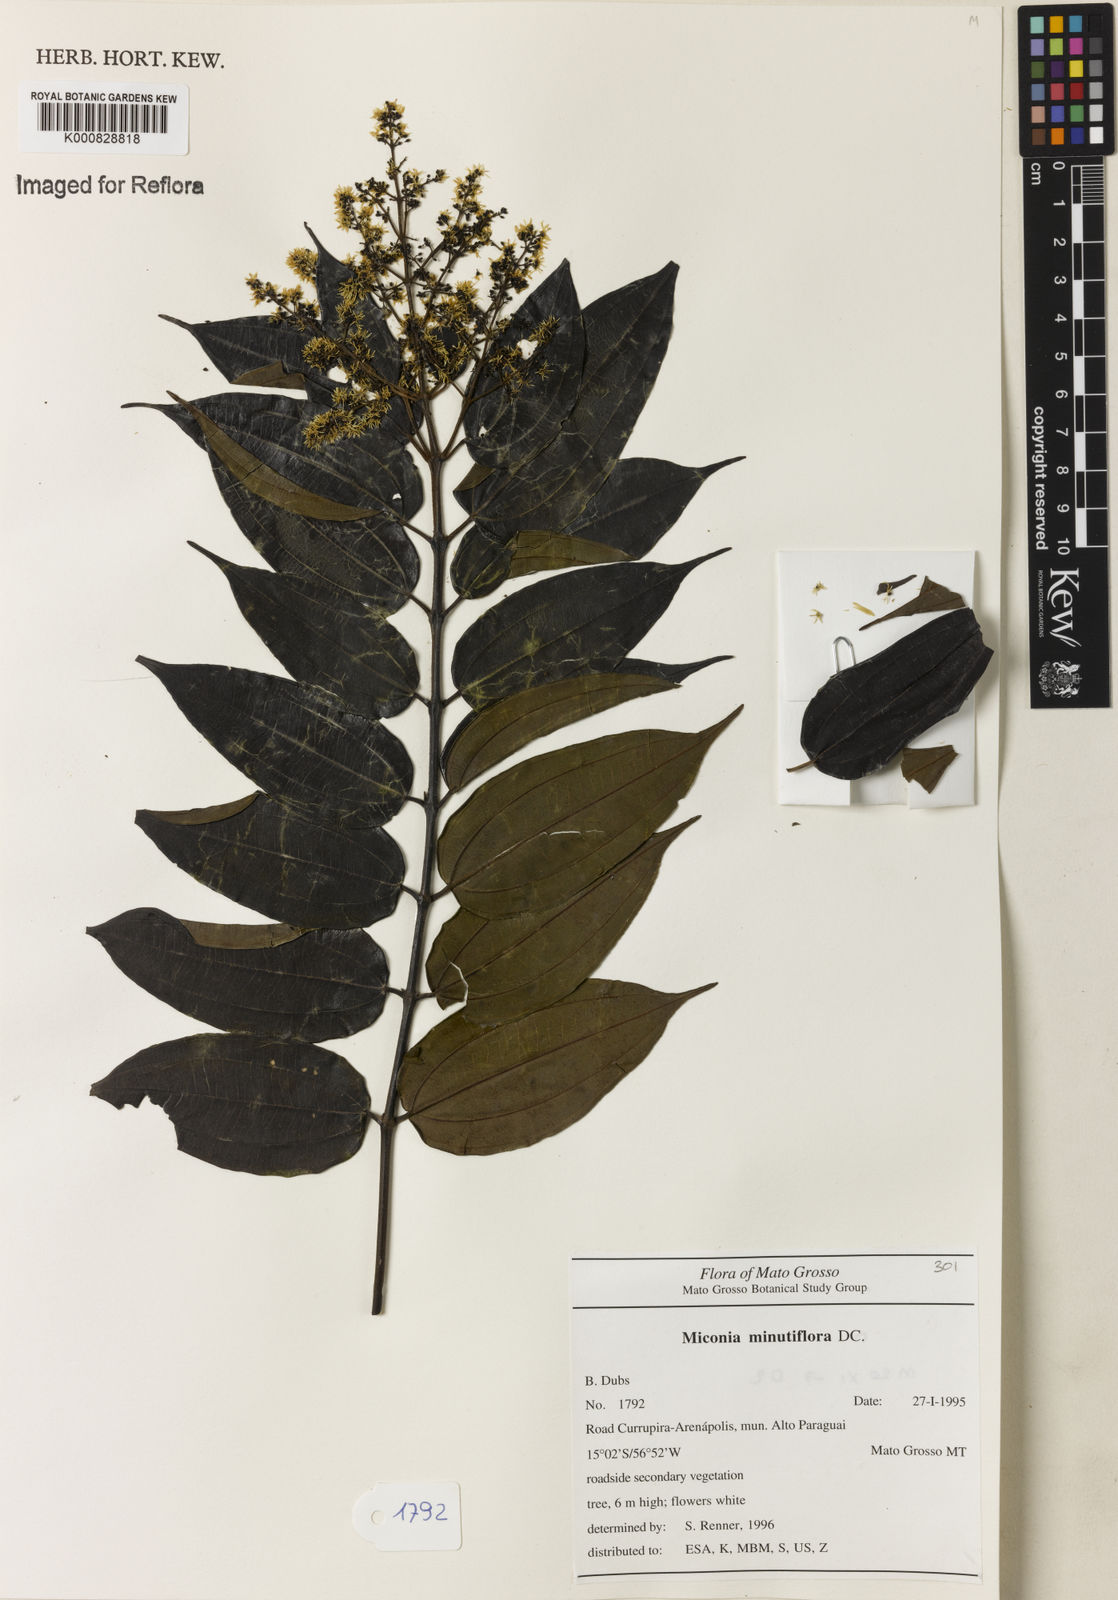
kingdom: Plantae
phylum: Tracheophyta
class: Magnoliopsida
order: Myrtales
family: Melastomataceae
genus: Miconia
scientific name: Miconia minutiflora
